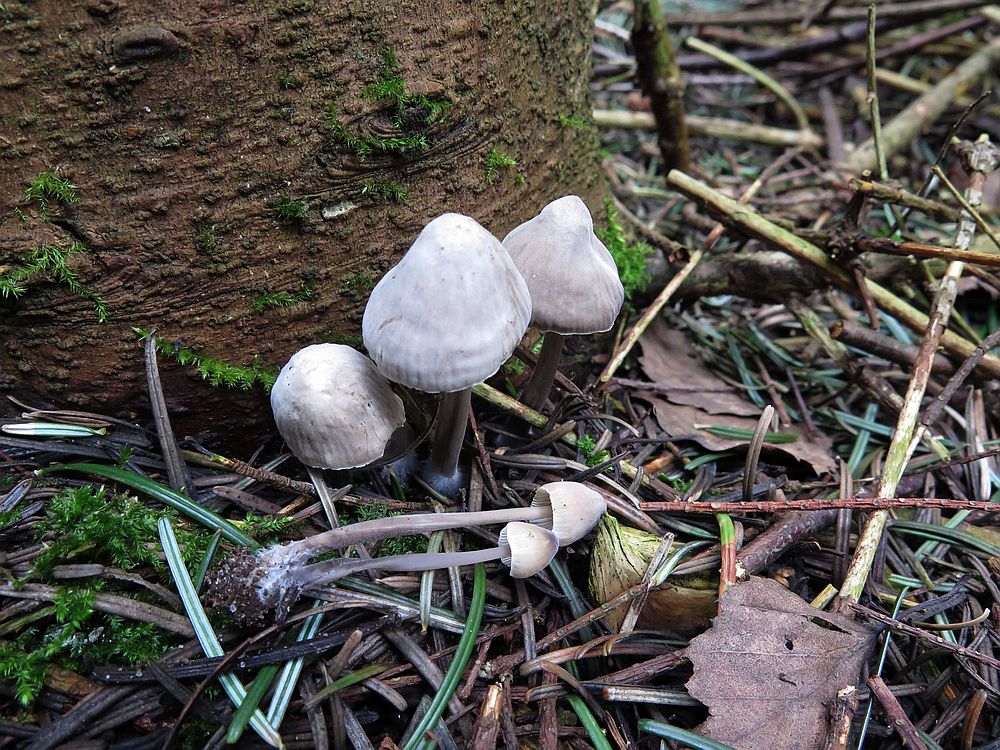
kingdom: Fungi
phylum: Basidiomycota
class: Agaricomycetes
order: Agaricales
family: Mycenaceae
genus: Mycena
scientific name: Mycena leptocephala
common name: klor-huesvamp
